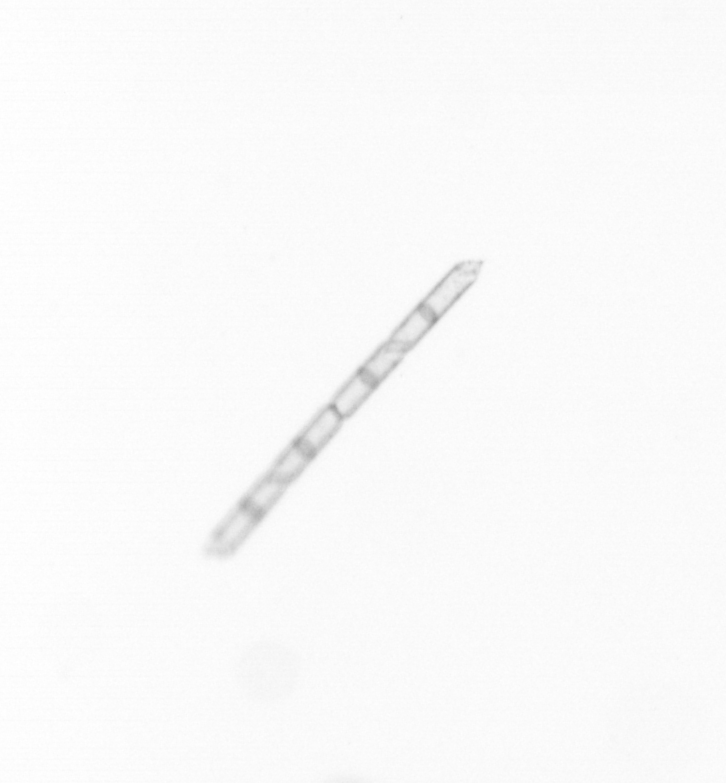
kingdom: Chromista
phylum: Ochrophyta
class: Bacillariophyceae
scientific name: Bacillariophyceae
